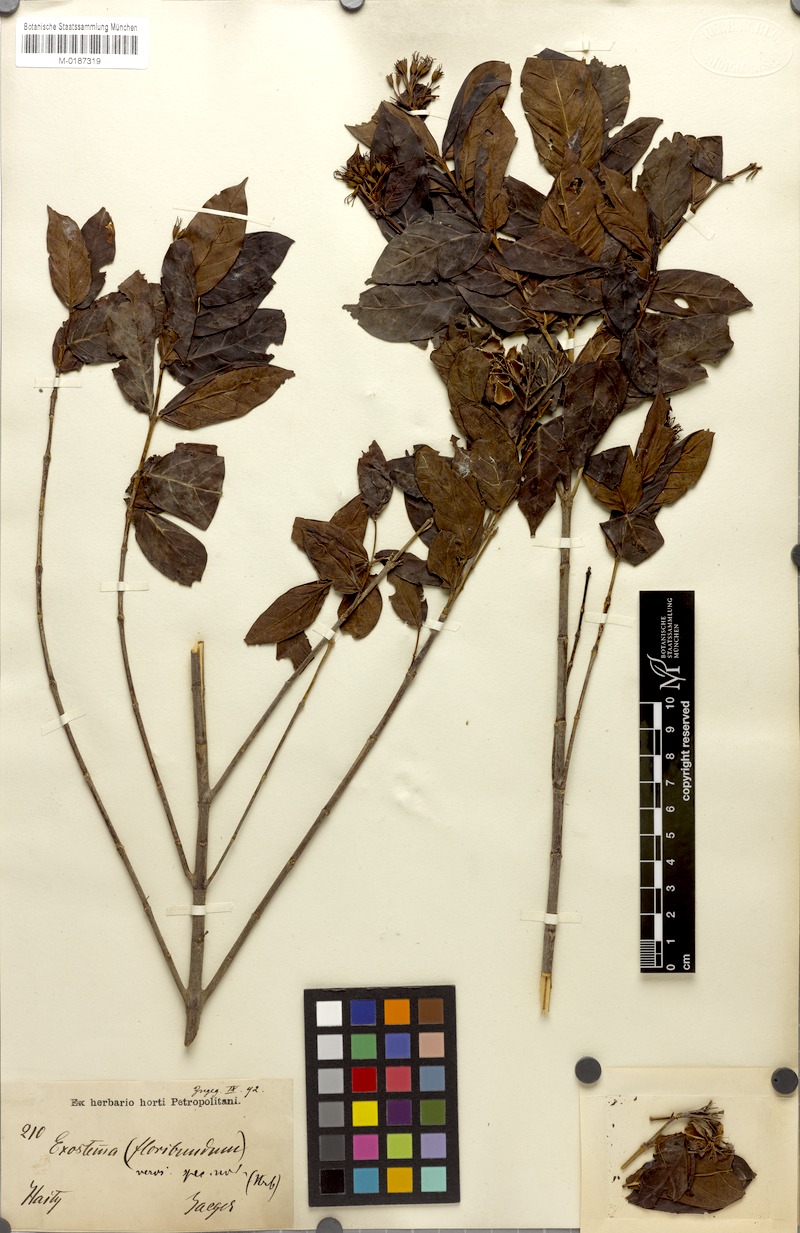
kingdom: Plantae
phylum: Tracheophyta
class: Magnoliopsida
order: Gentianales
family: Rubiaceae
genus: Solenandra
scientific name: Solenandra lineata
